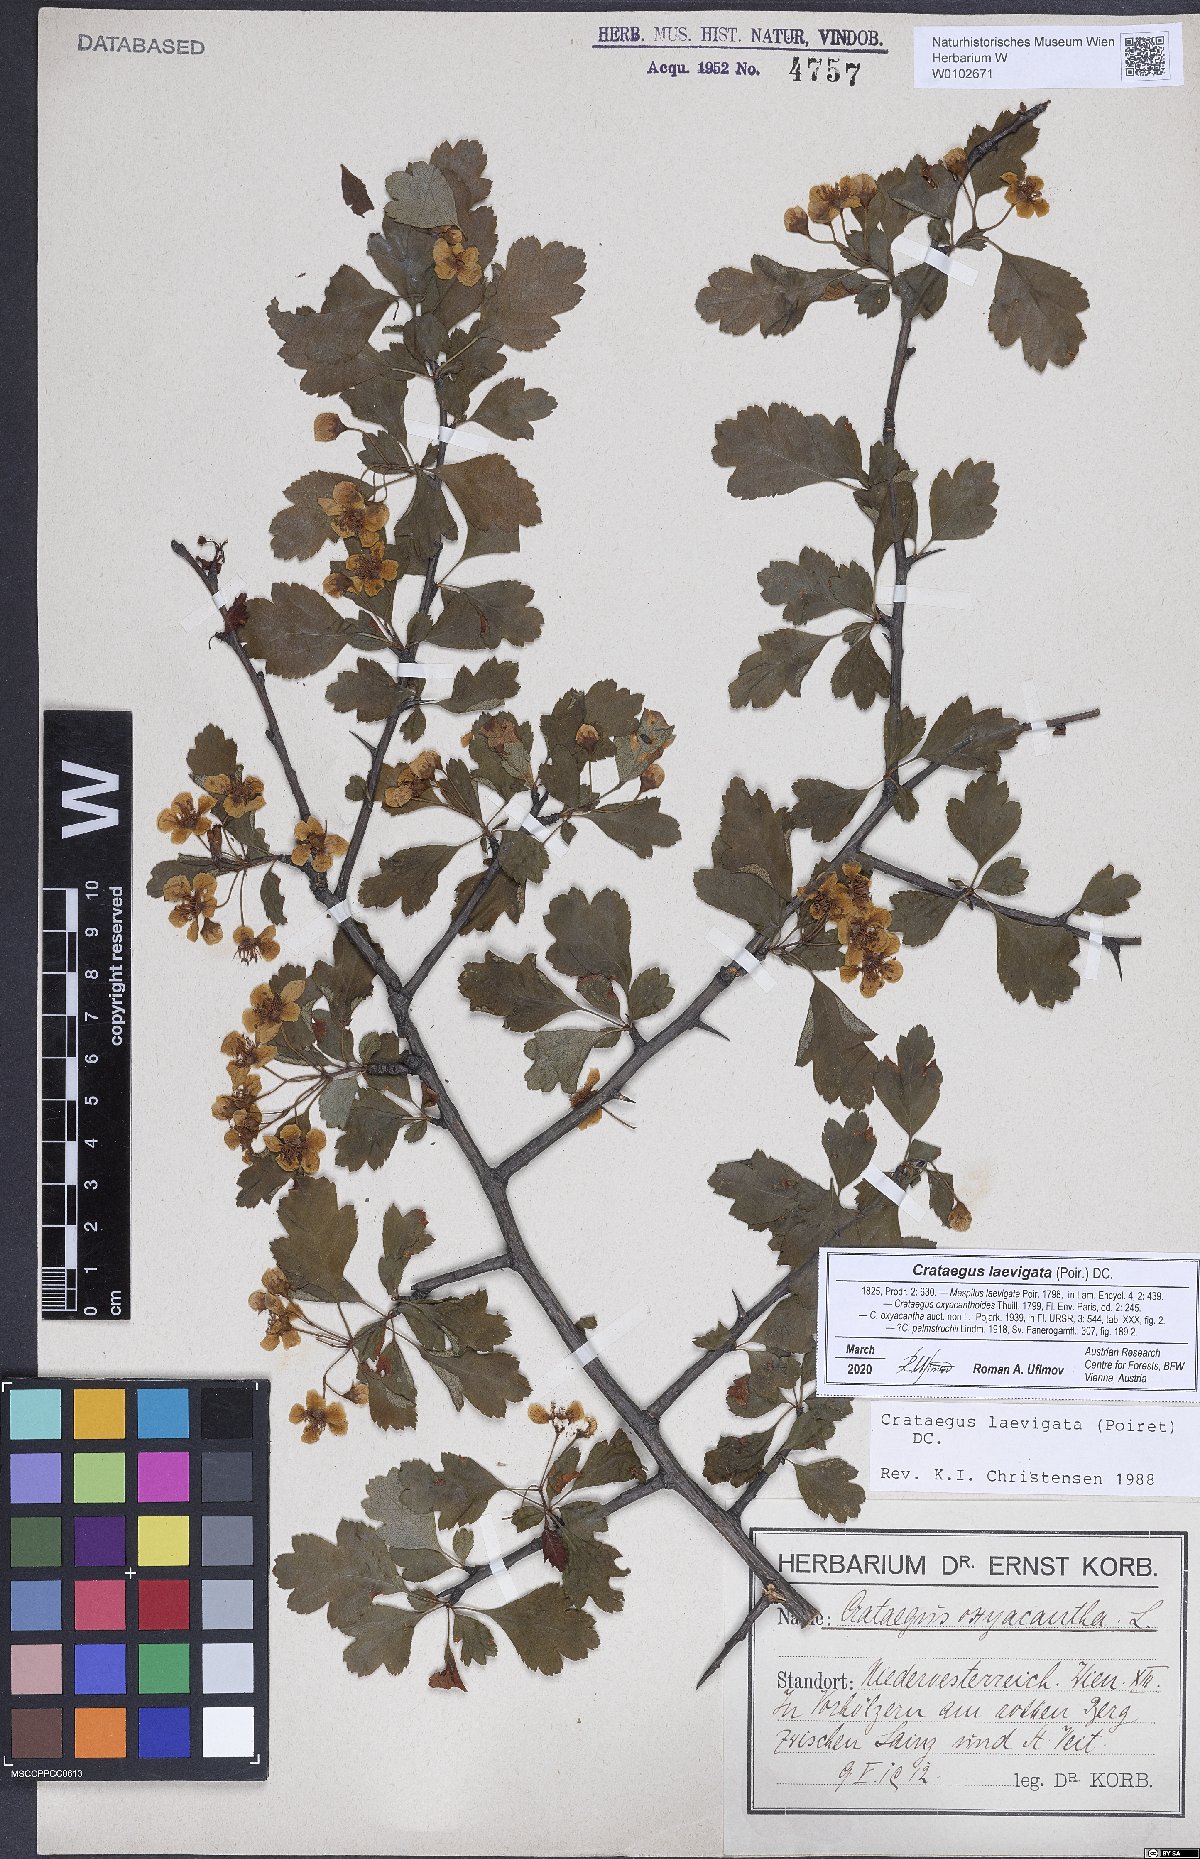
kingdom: Plantae
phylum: Tracheophyta
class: Magnoliopsida
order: Rosales
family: Rosaceae
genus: Crataegus
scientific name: Crataegus laevigata
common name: Midland hawthorn
